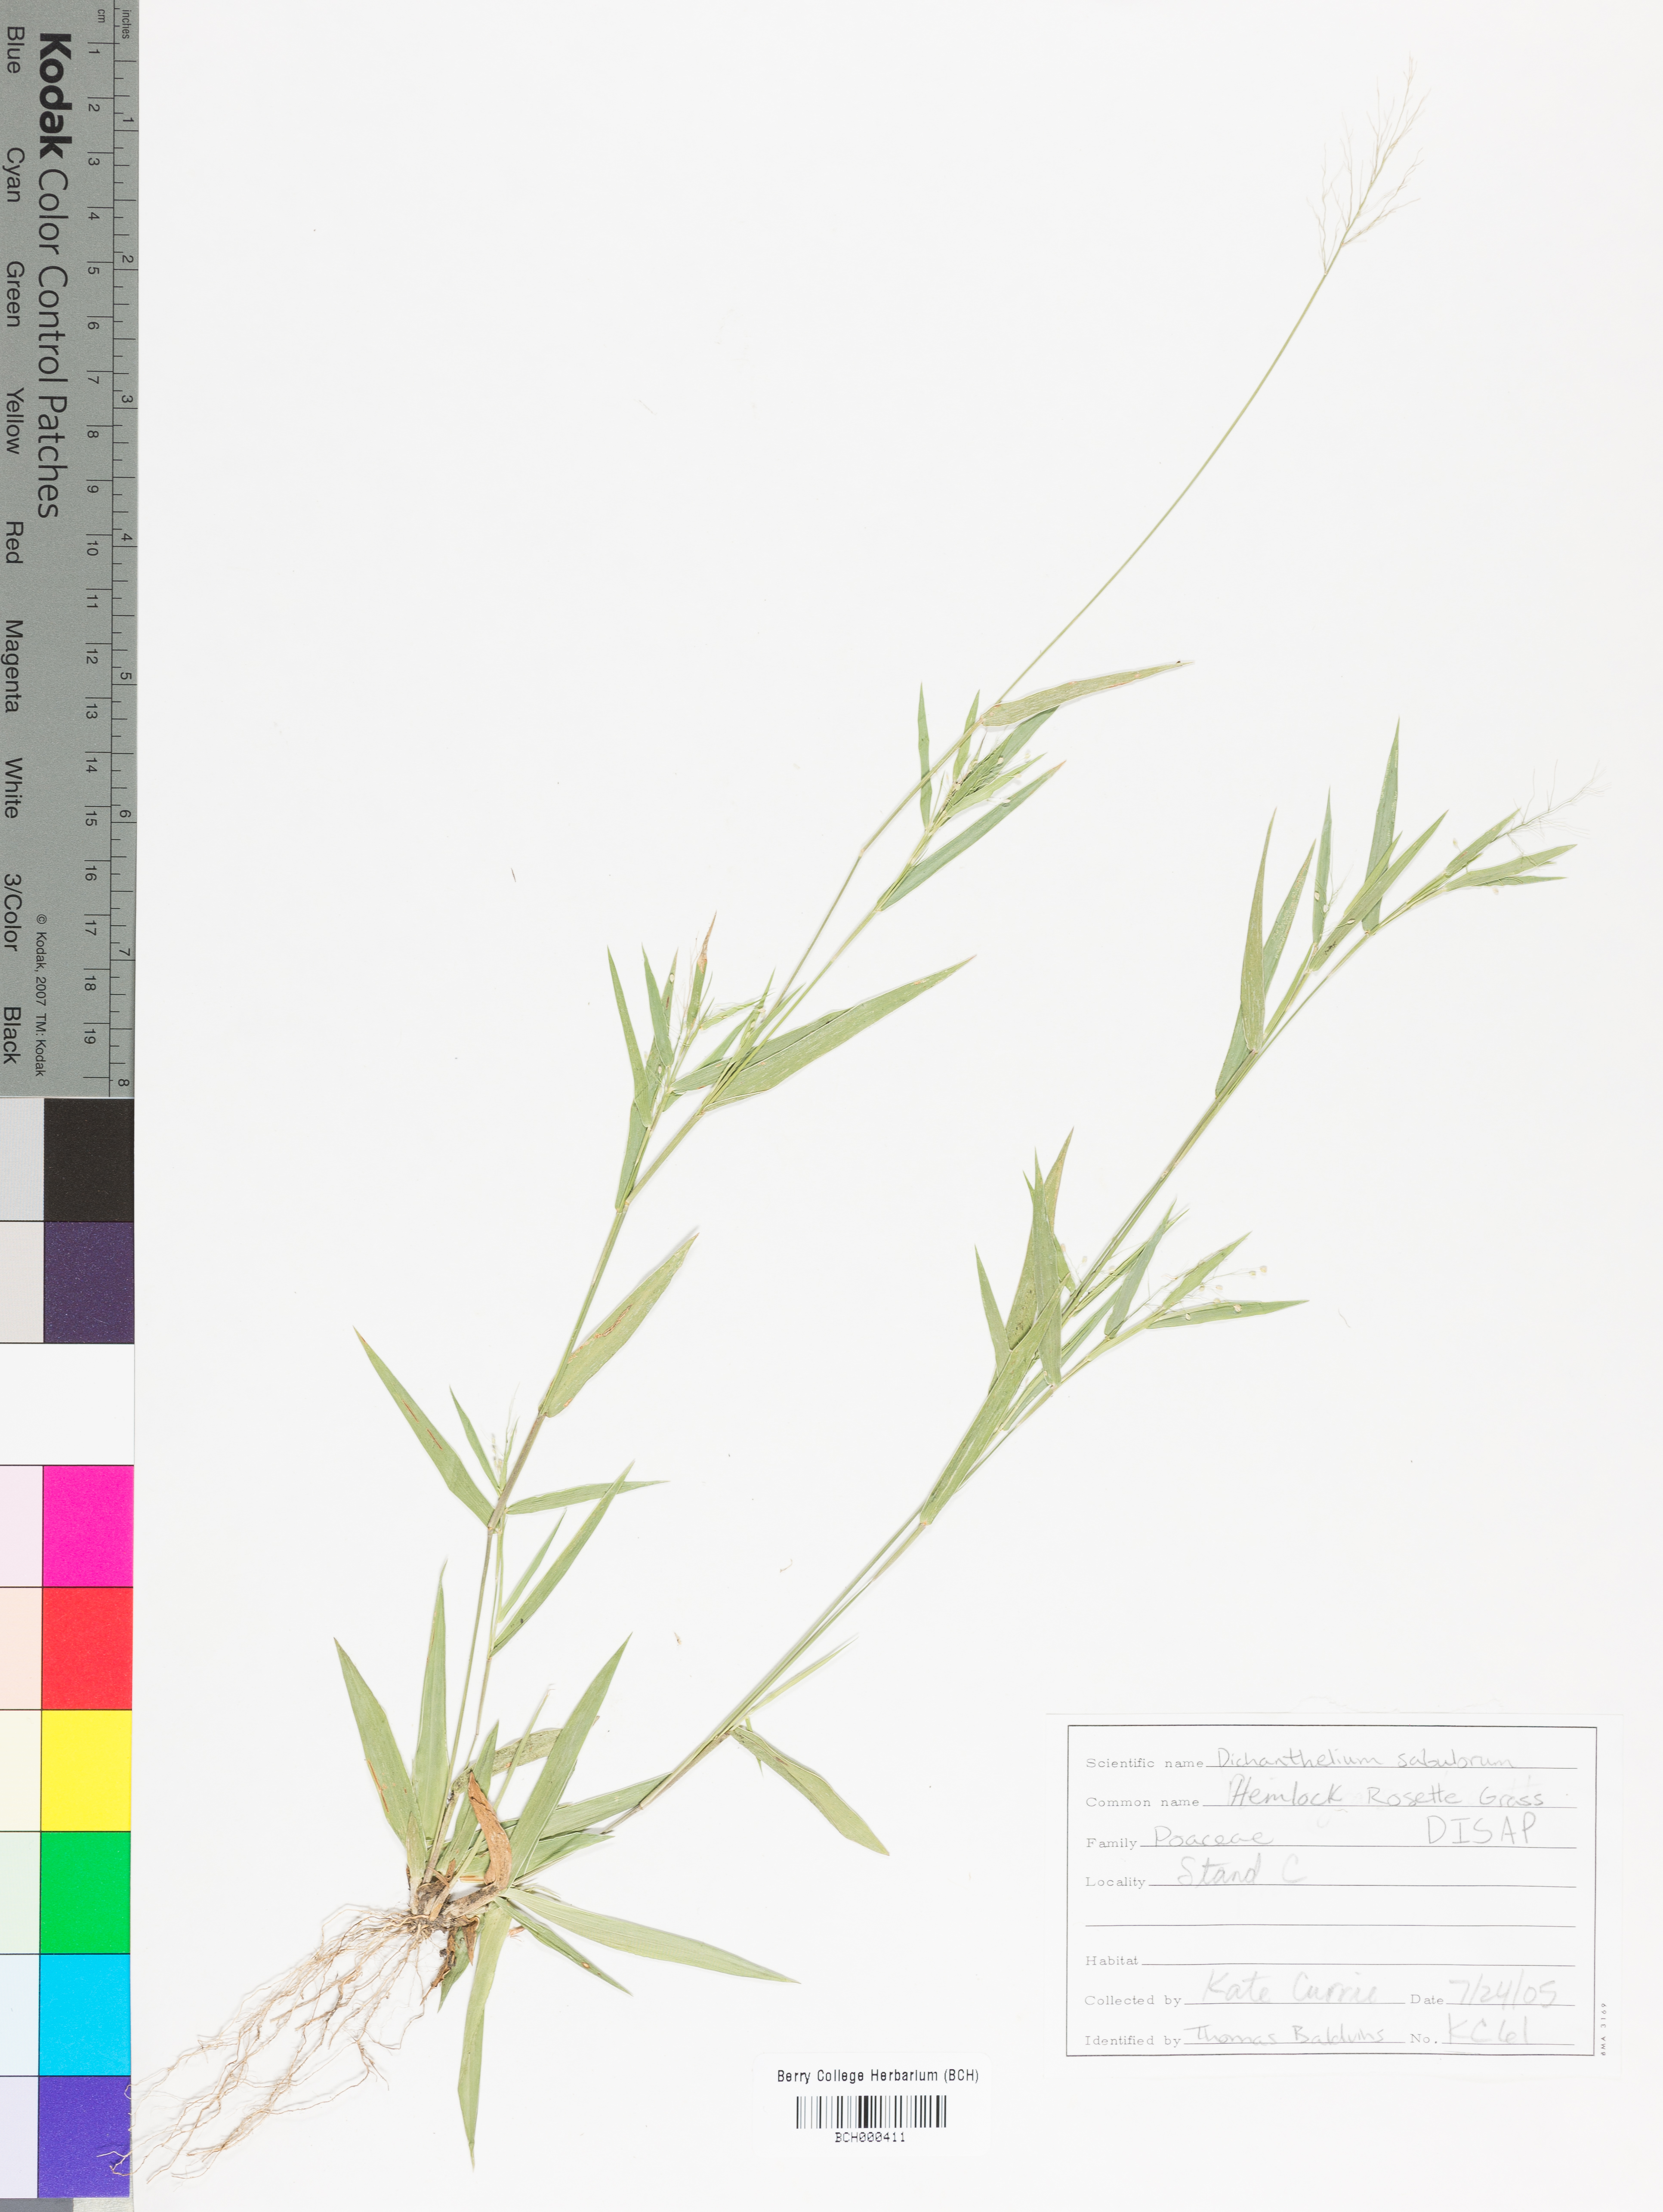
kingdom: Plantae
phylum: Tracheophyta
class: Liliopsida
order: Poales
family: Poaceae
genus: Dichanthelium
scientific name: Dichanthelium patulum
